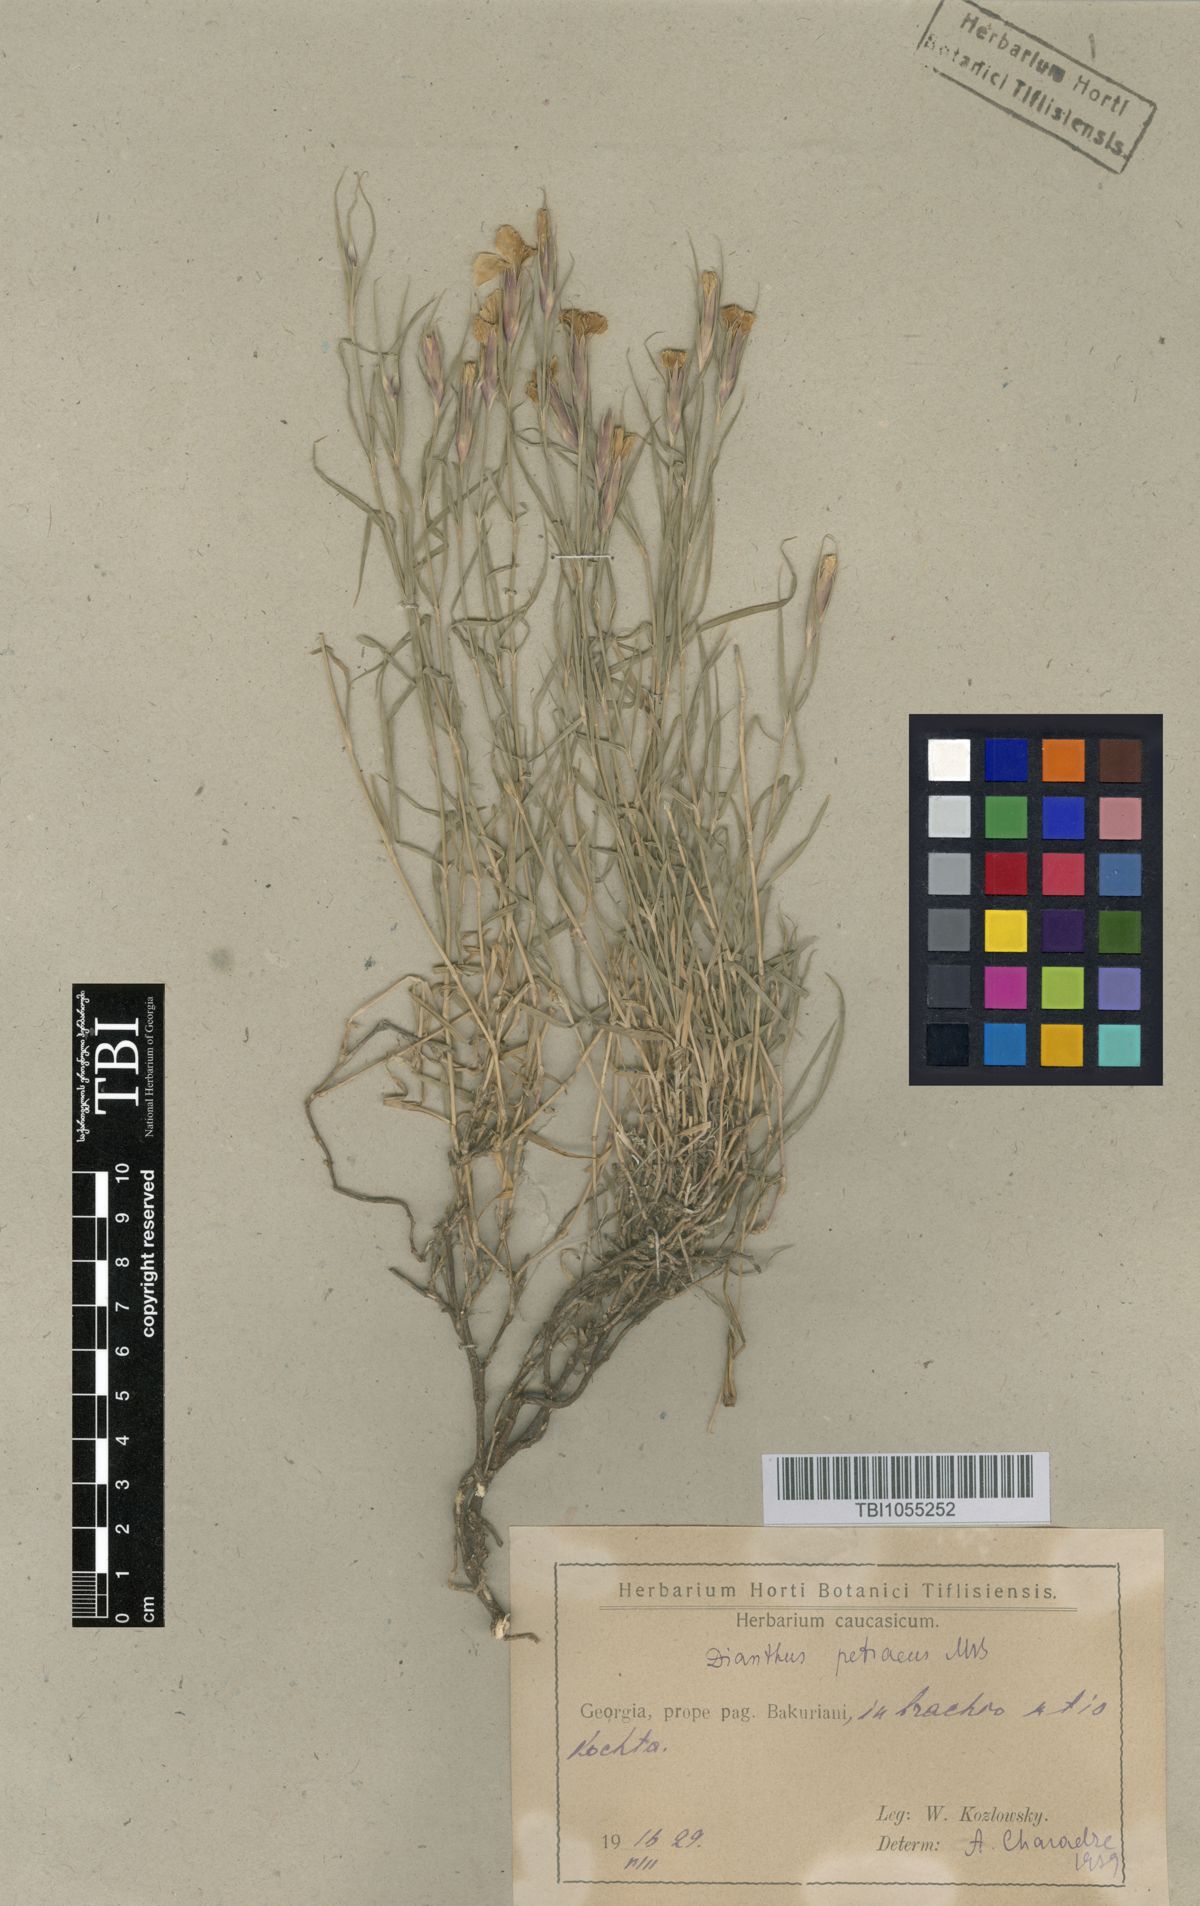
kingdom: Plantae
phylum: Tracheophyta
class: Magnoliopsida
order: Caryophyllales
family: Caryophyllaceae
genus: Dianthus
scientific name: Dianthus cretaceus
